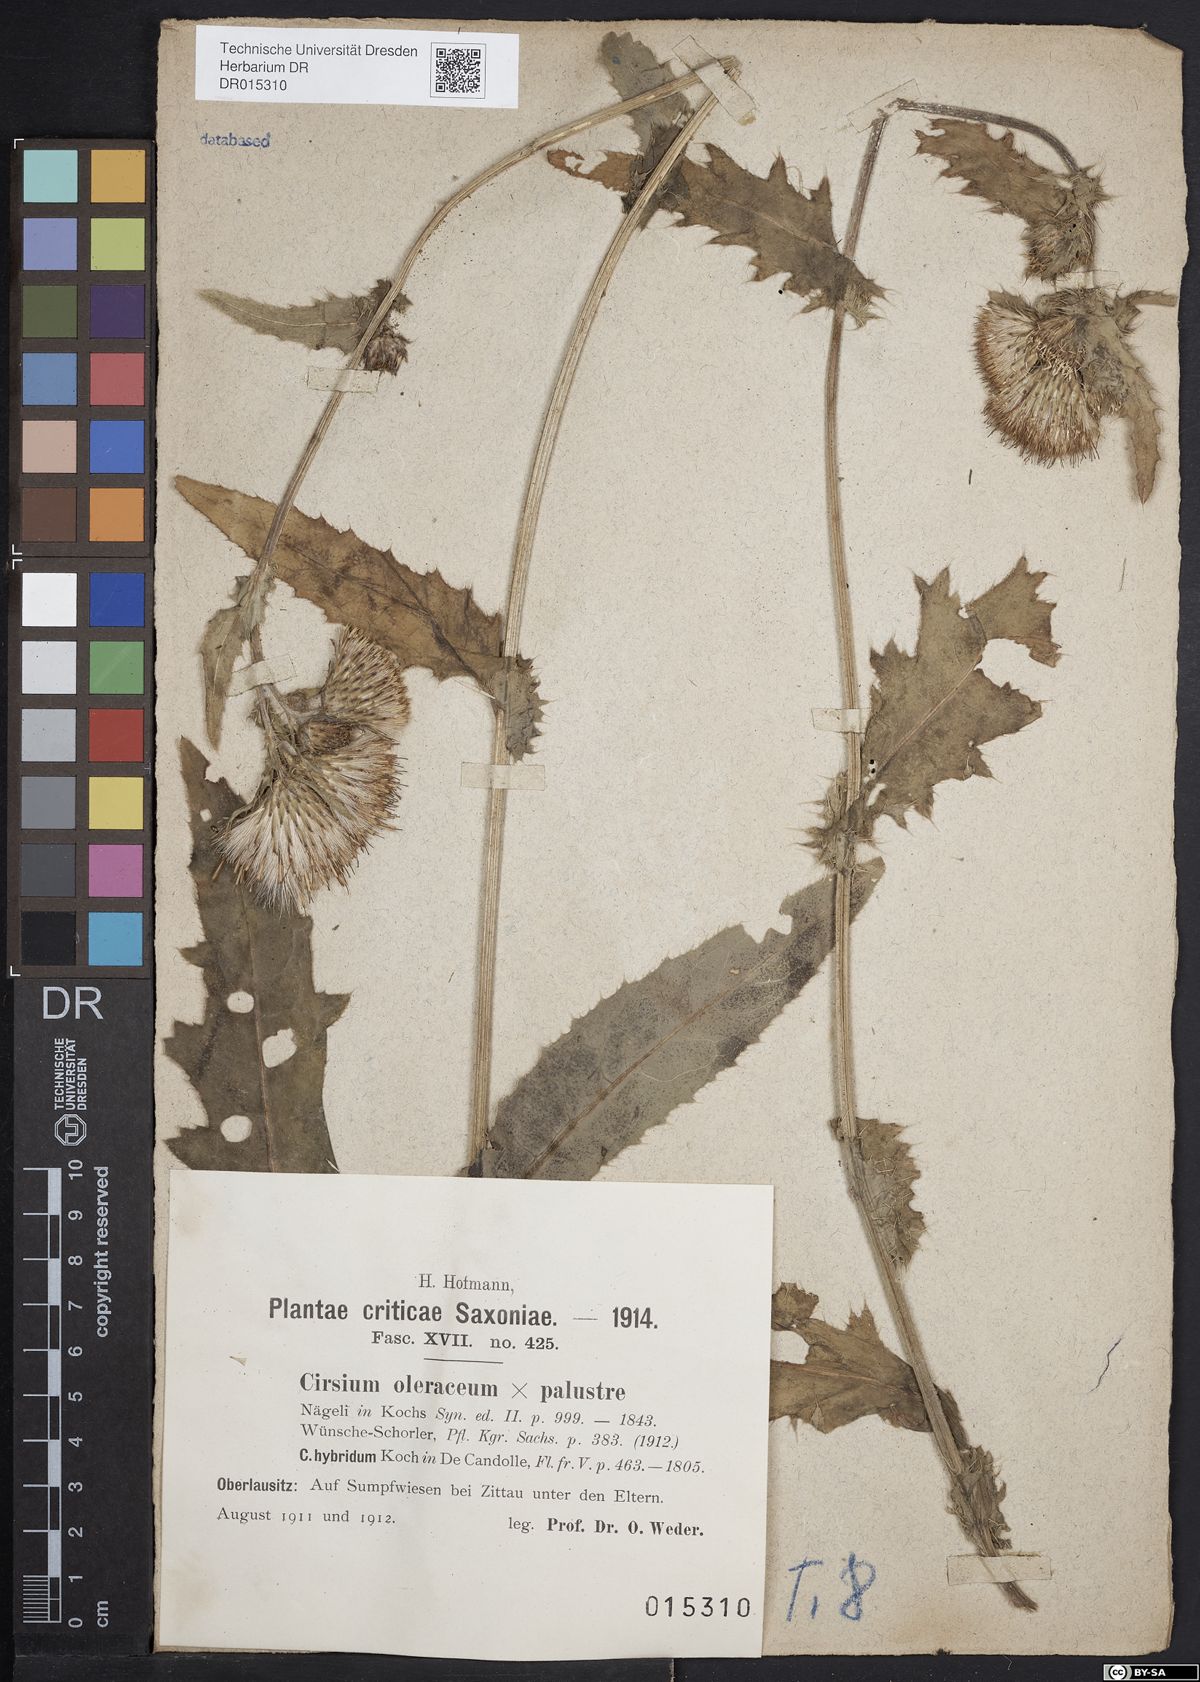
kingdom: Plantae
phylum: Tracheophyta
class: Magnoliopsida
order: Asterales
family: Asteraceae
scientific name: Asteraceae
